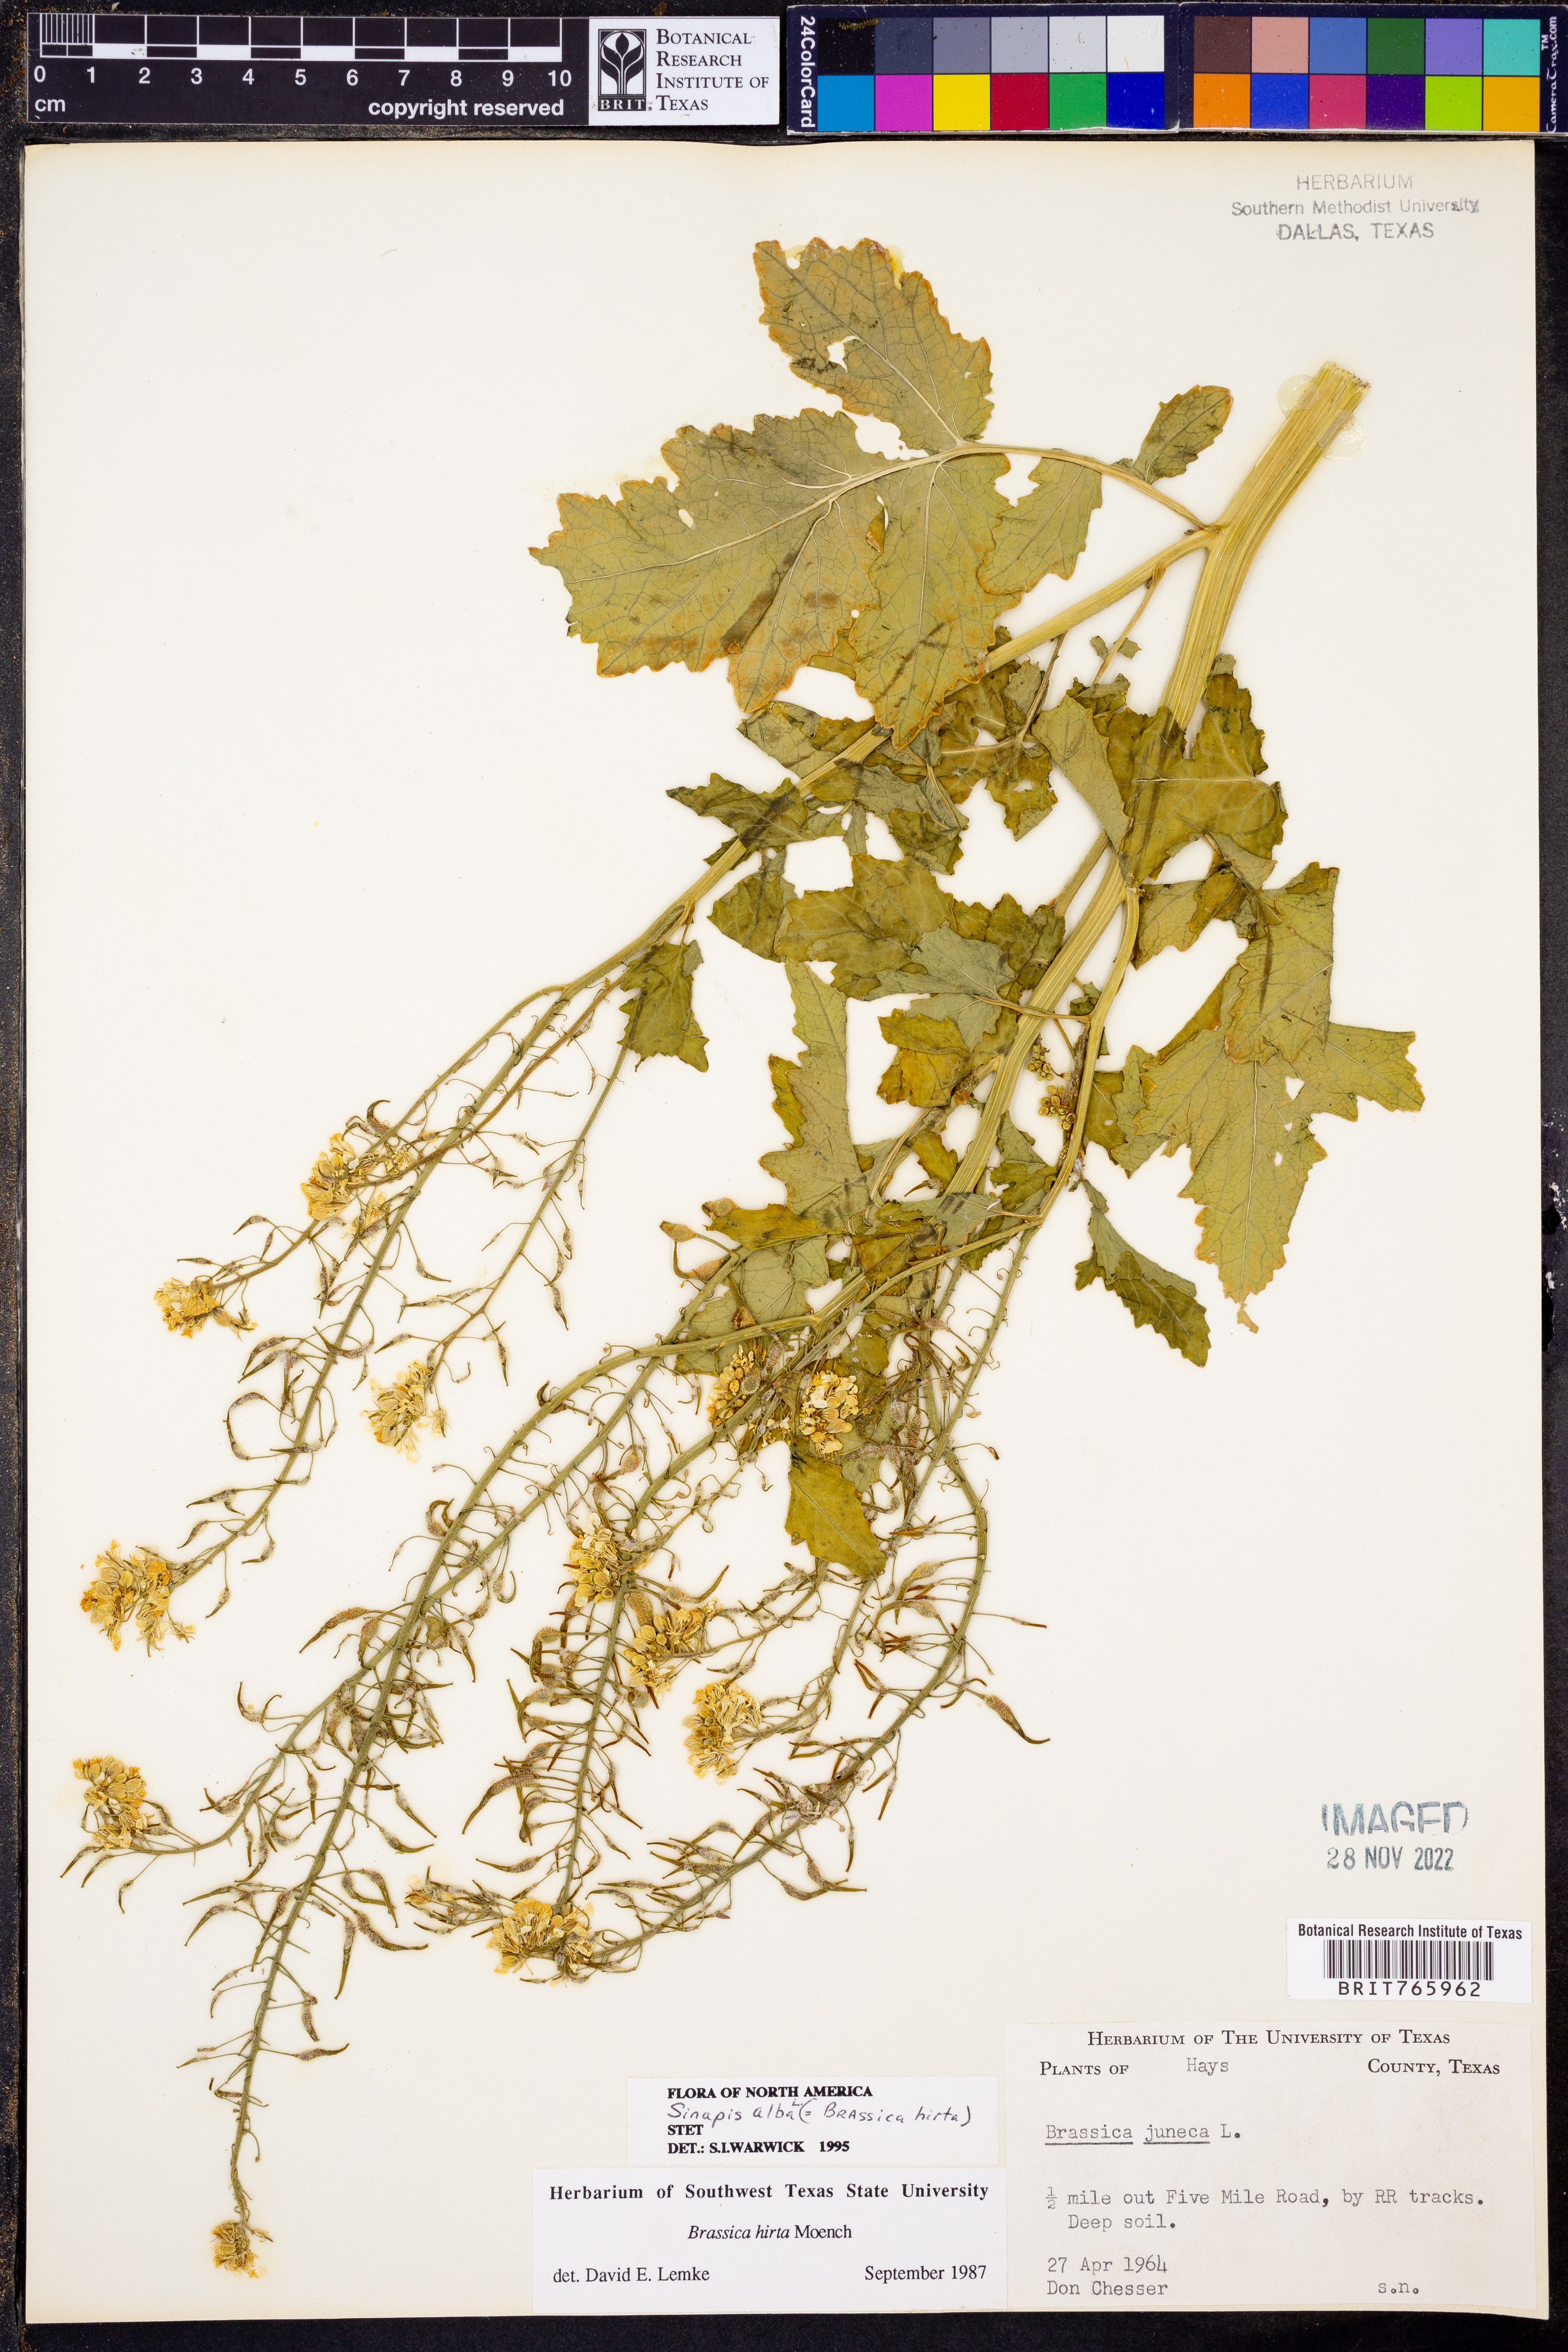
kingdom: Plantae
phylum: Tracheophyta
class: Magnoliopsida
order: Brassicales
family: Brassicaceae
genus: Sinapis
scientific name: Sinapis alba
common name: White mustard
